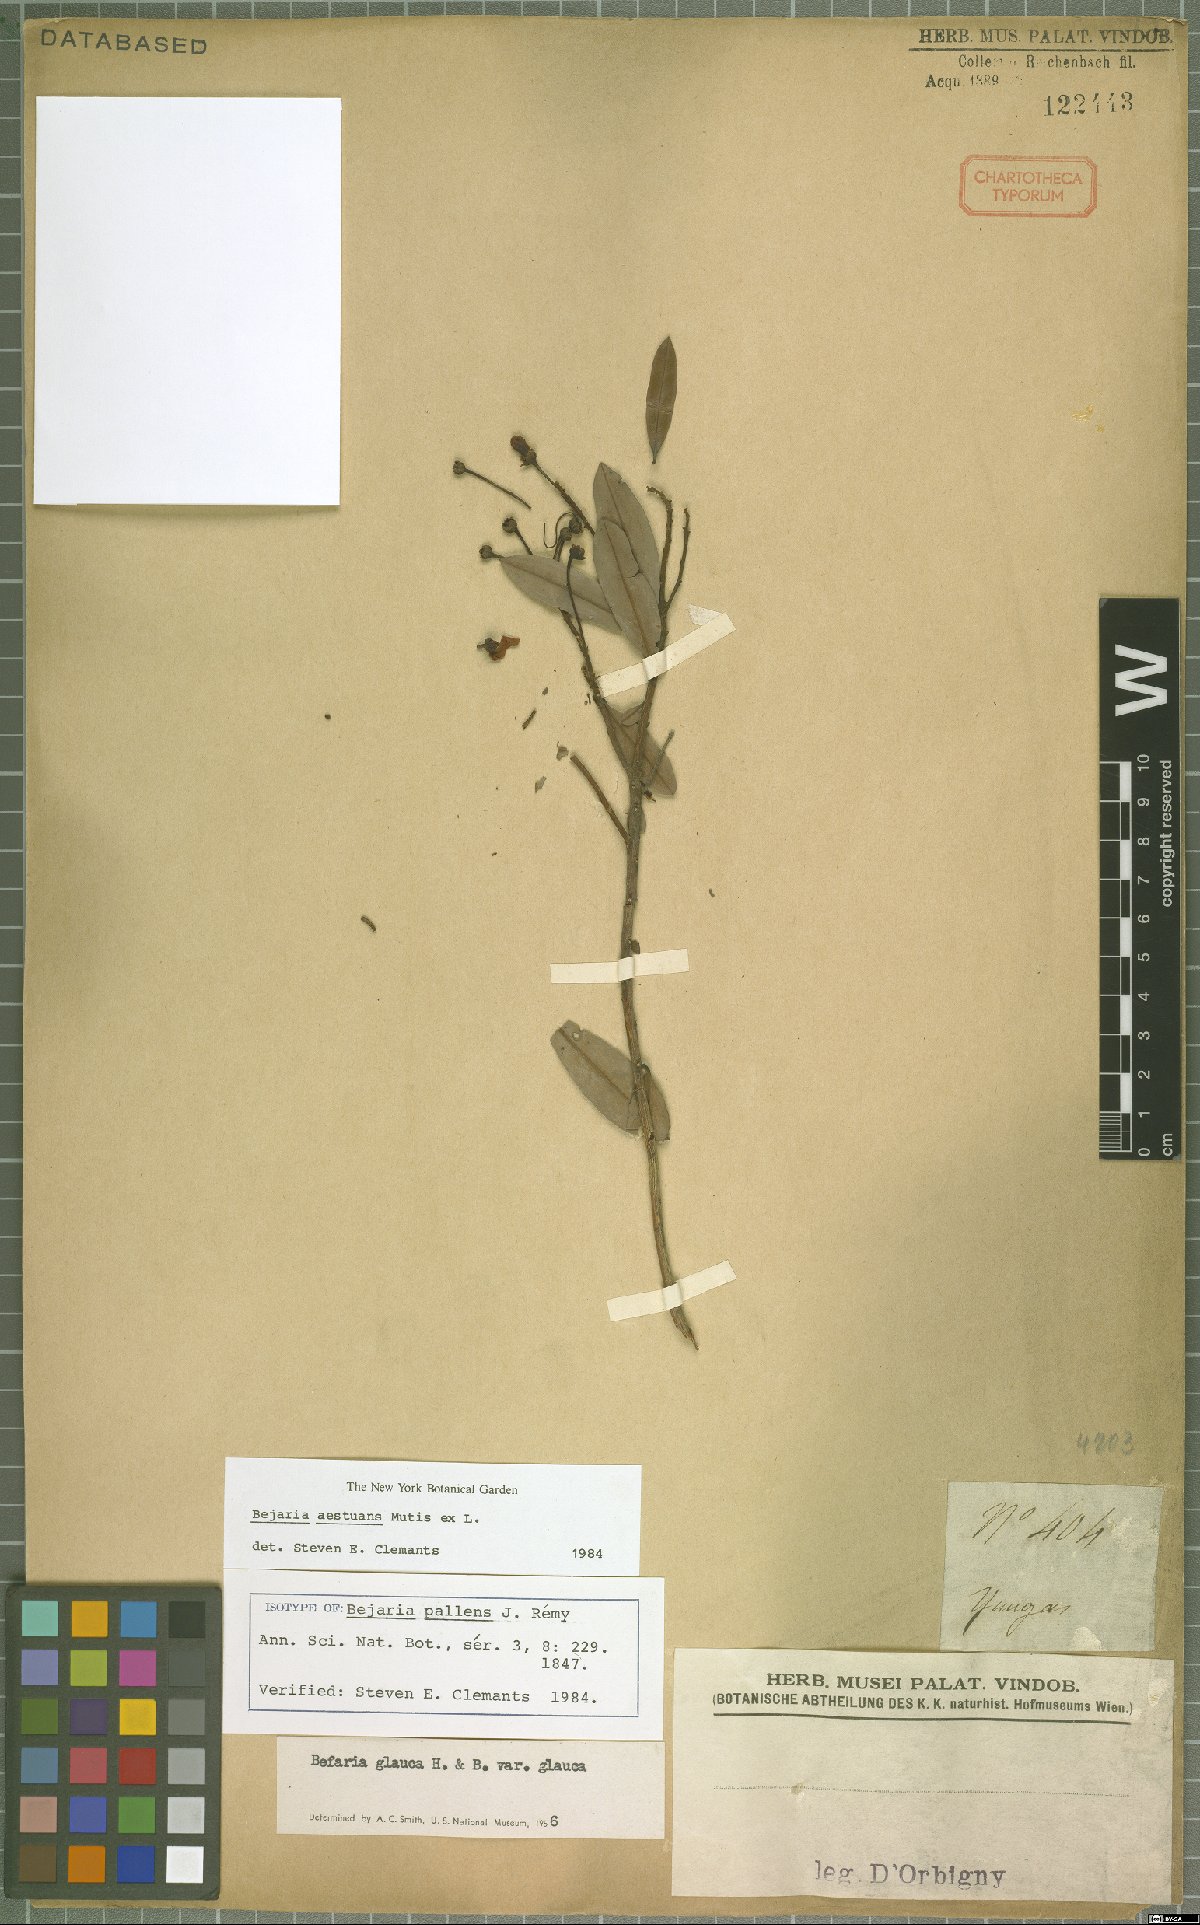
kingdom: Plantae
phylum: Tracheophyta
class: Magnoliopsida
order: Ericales
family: Ericaceae
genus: Bejaria
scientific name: Bejaria aestuans
